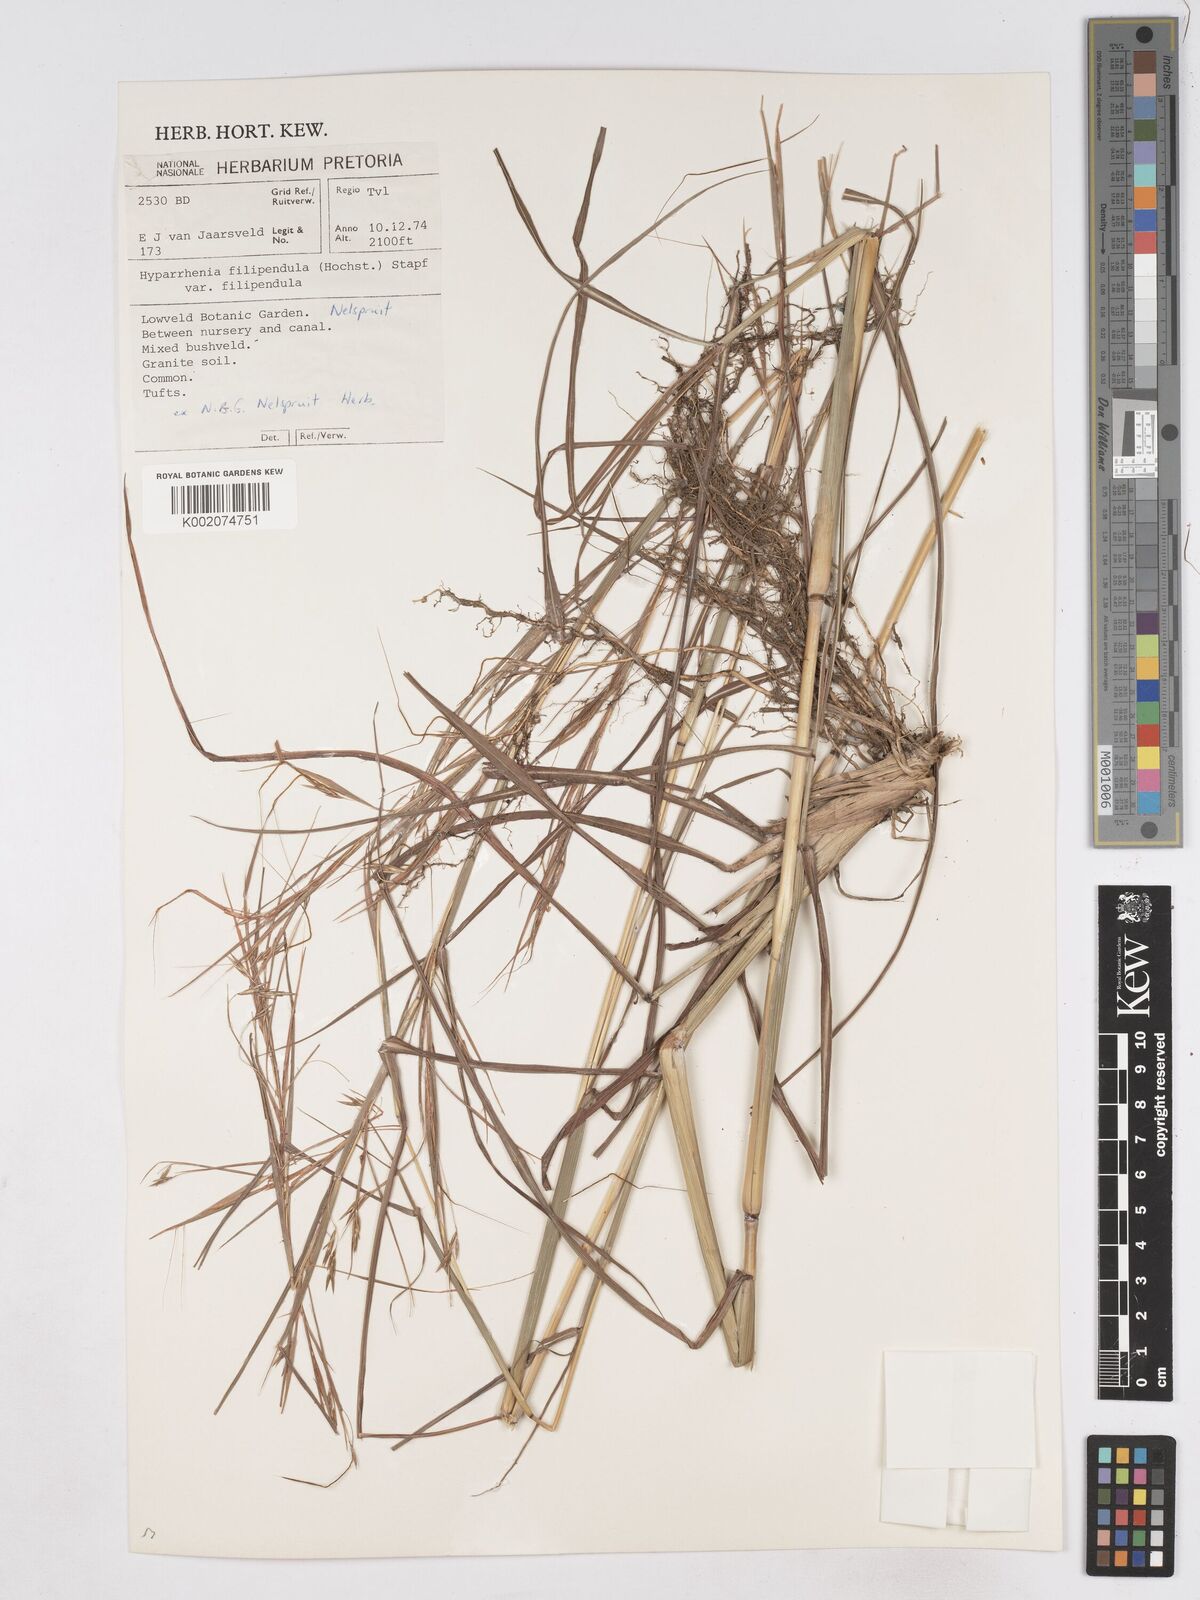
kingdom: Plantae
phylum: Tracheophyta
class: Liliopsida
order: Poales
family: Poaceae
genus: Hyparrhenia
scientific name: Hyparrhenia filipendula
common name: Tambookie grass
